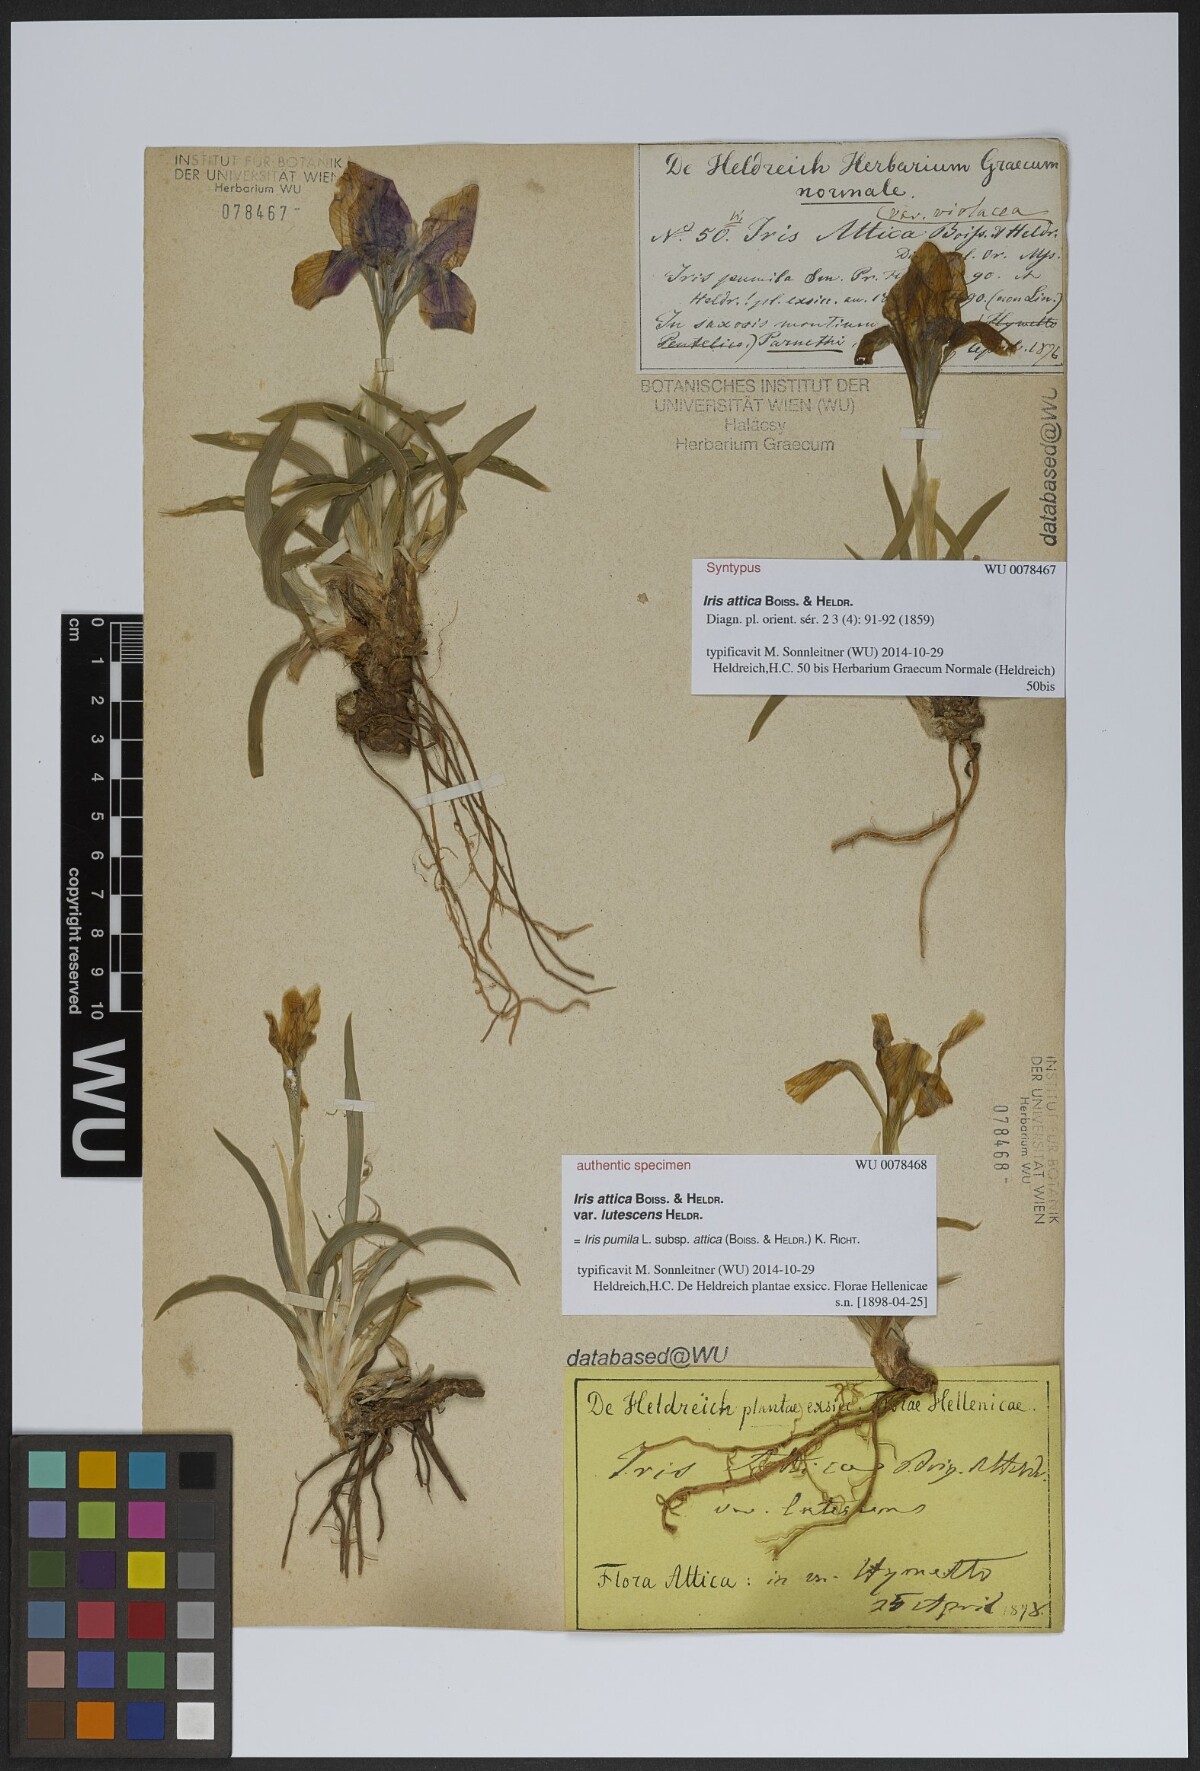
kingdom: Plantae
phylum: Tracheophyta
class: Liliopsida
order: Asparagales
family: Iridaceae
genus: Iris
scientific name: Iris pumila
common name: Dwarf iris
